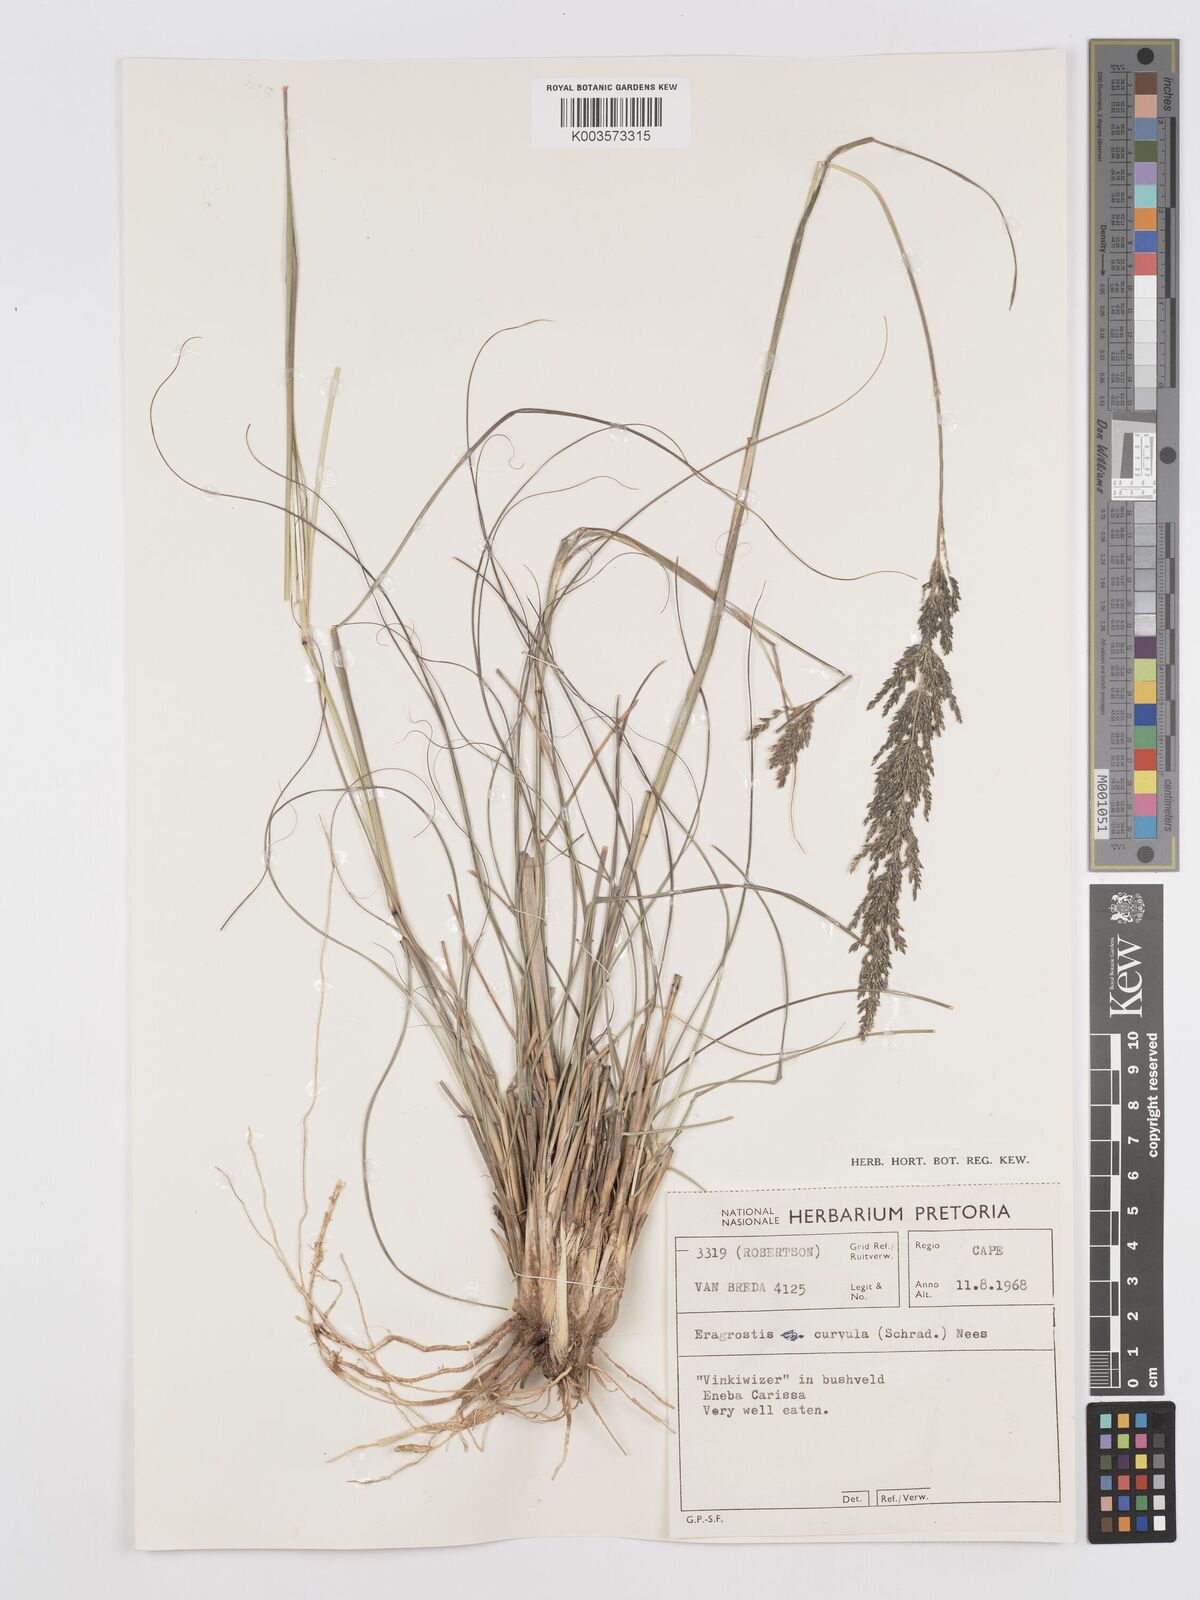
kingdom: Plantae
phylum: Tracheophyta
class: Liliopsida
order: Poales
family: Poaceae
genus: Eragrostis
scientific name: Eragrostis curvula
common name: African love-grass
